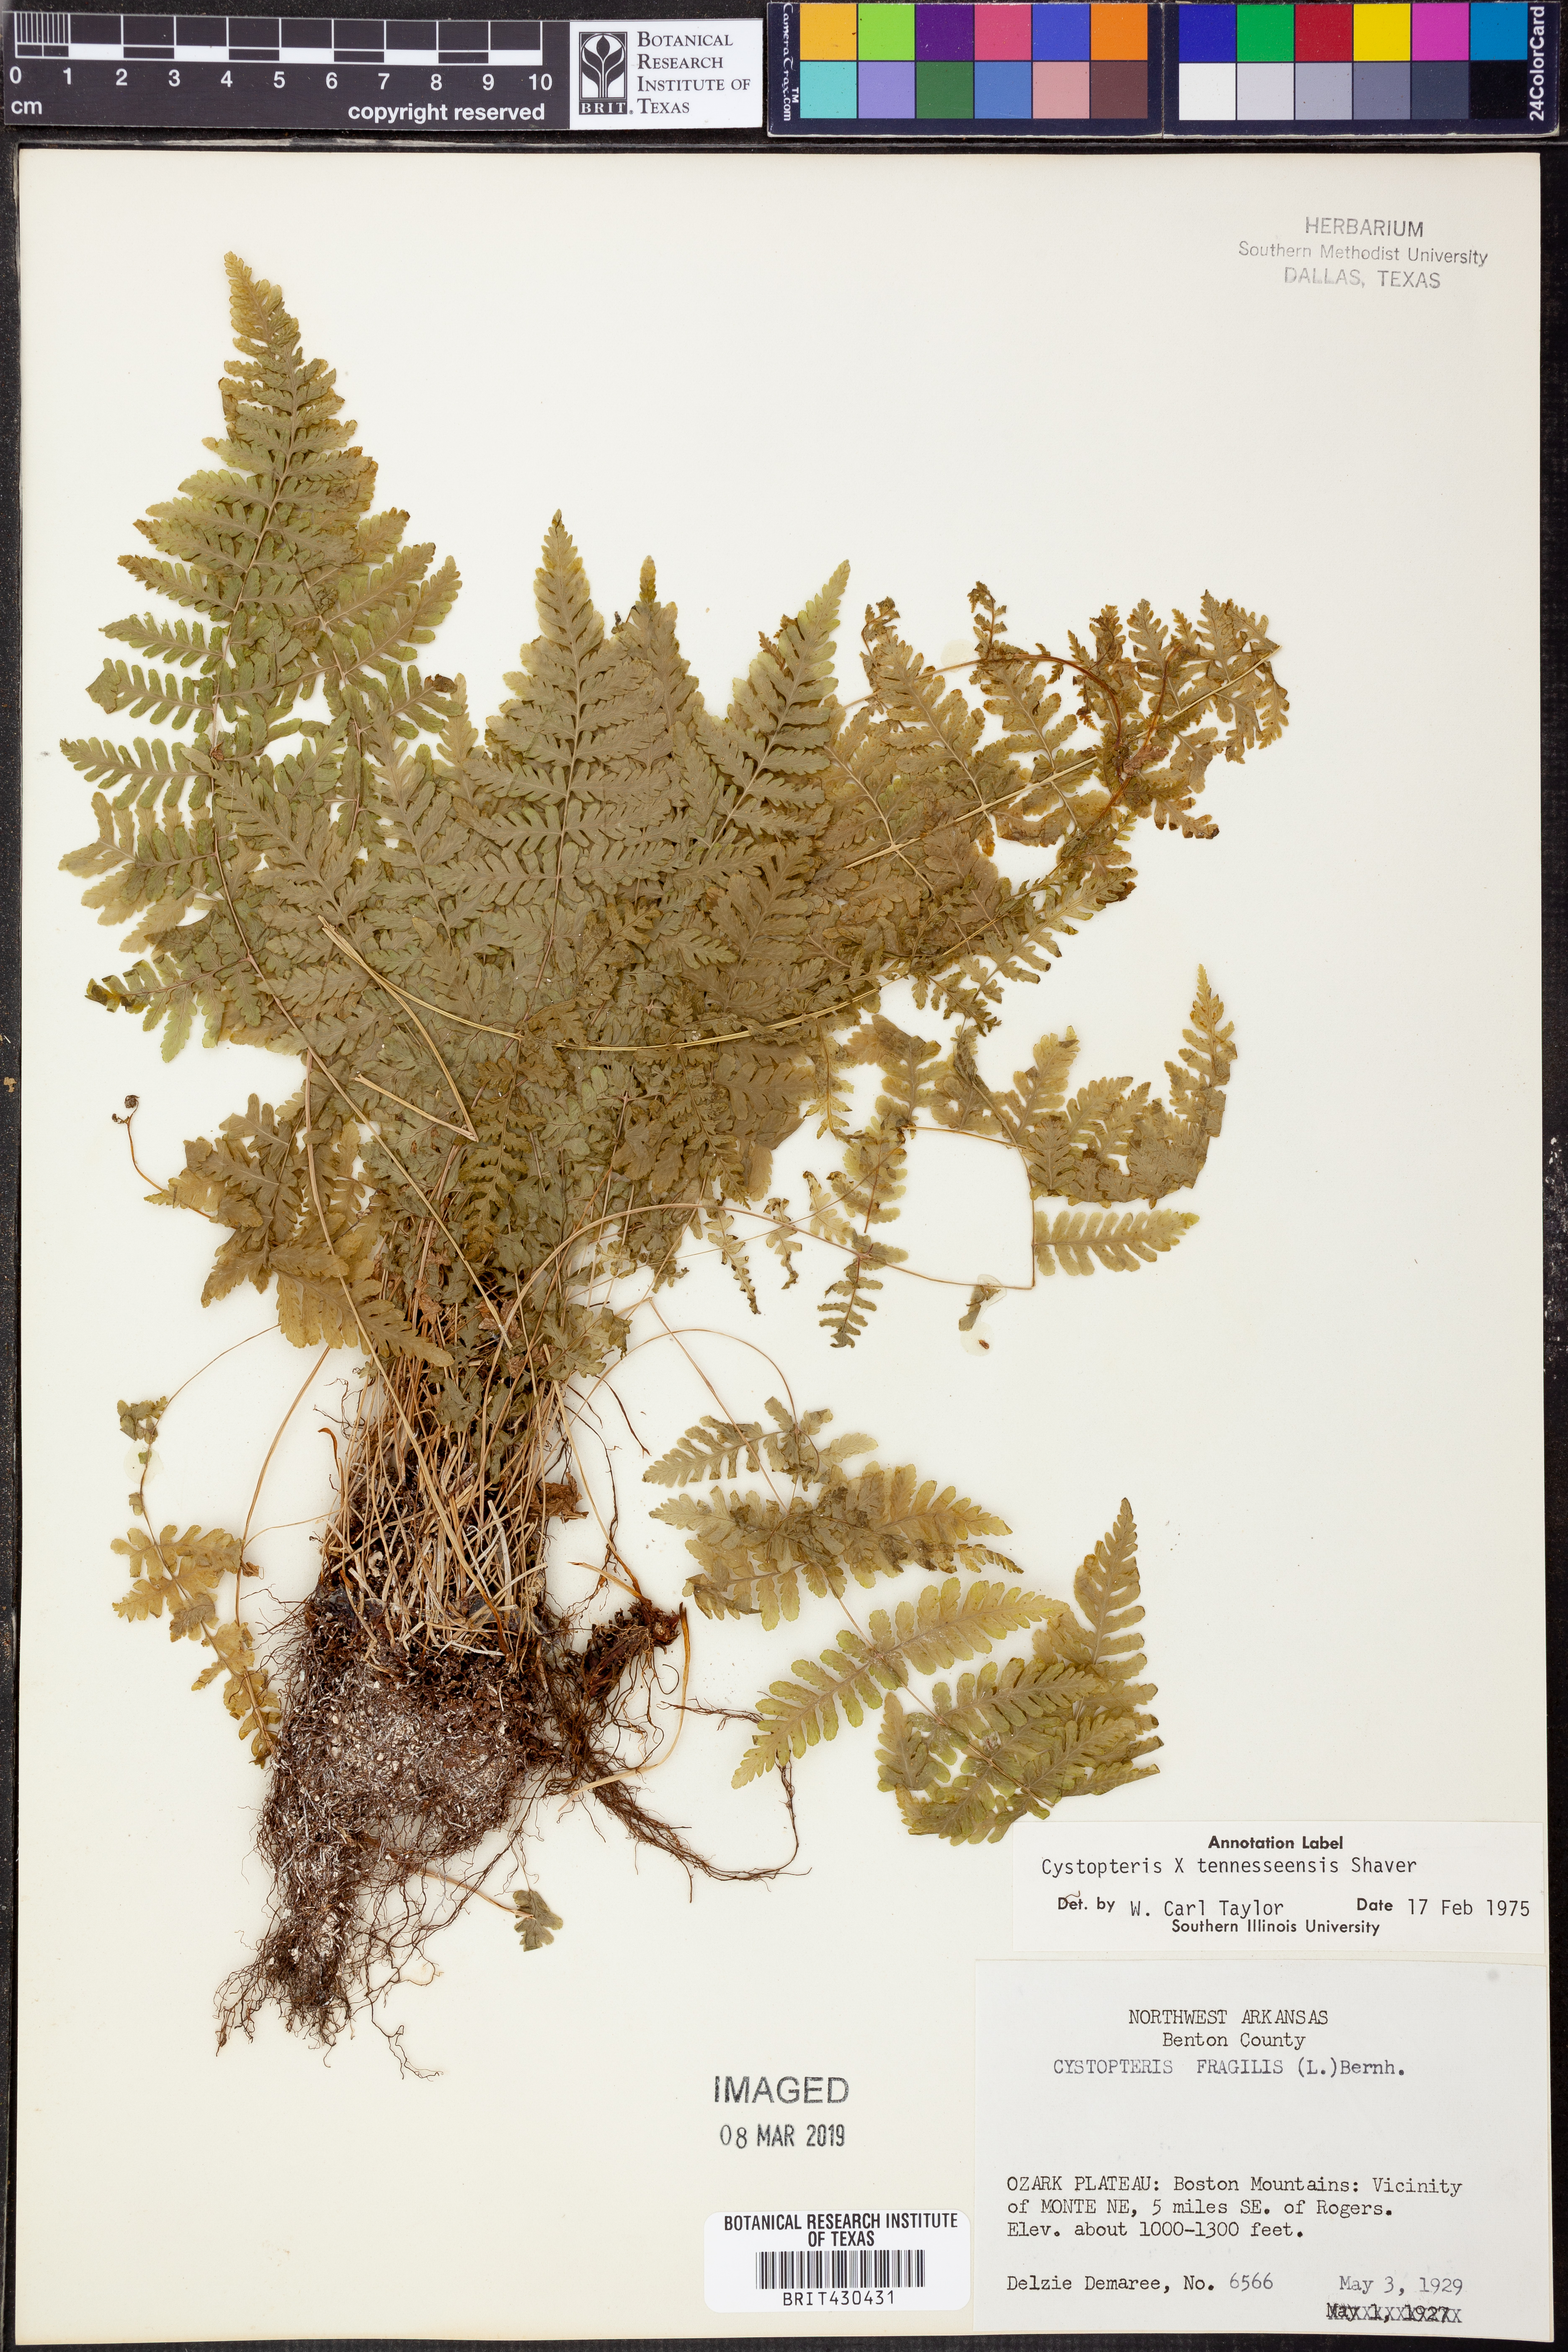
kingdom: Plantae
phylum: Tracheophyta
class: Polypodiopsida
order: Polypodiales
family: Cystopteridaceae
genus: Cystopteris
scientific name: Cystopteris tennesseensis
